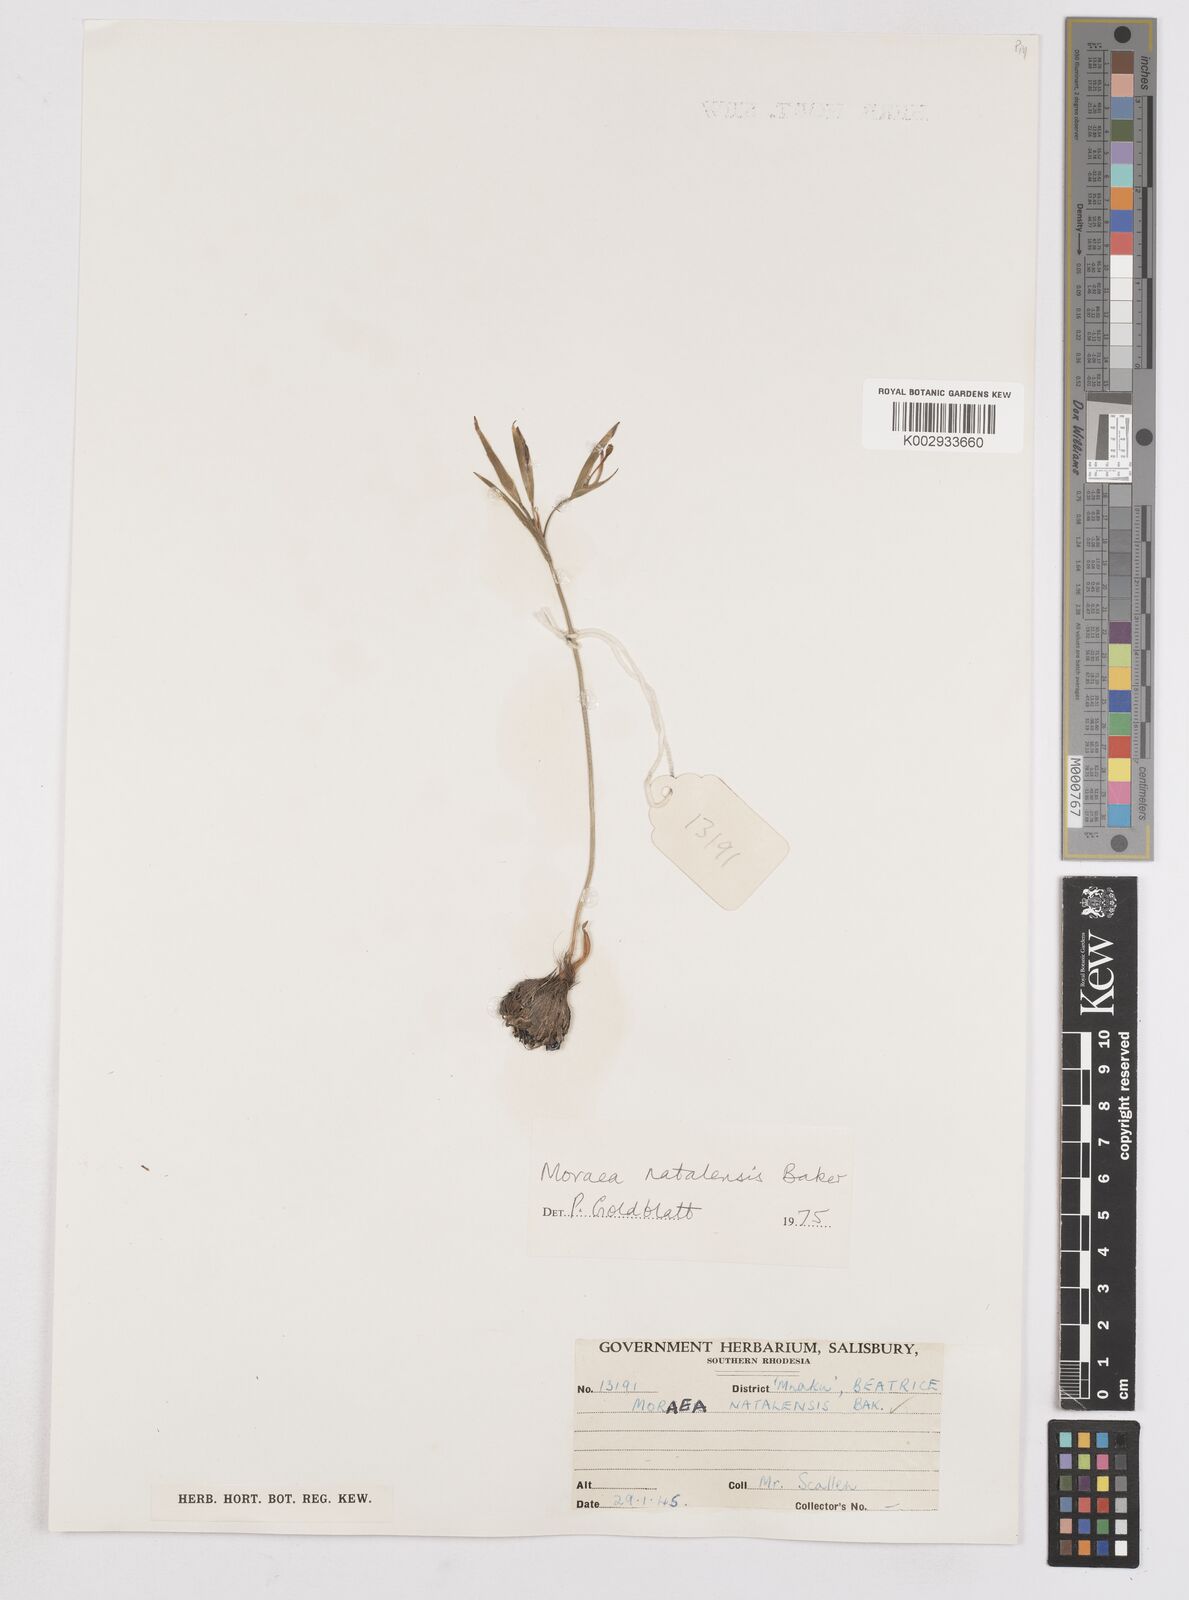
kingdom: Plantae
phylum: Tracheophyta
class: Liliopsida
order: Asparagales
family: Iridaceae
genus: Moraea
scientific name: Moraea natalensis
